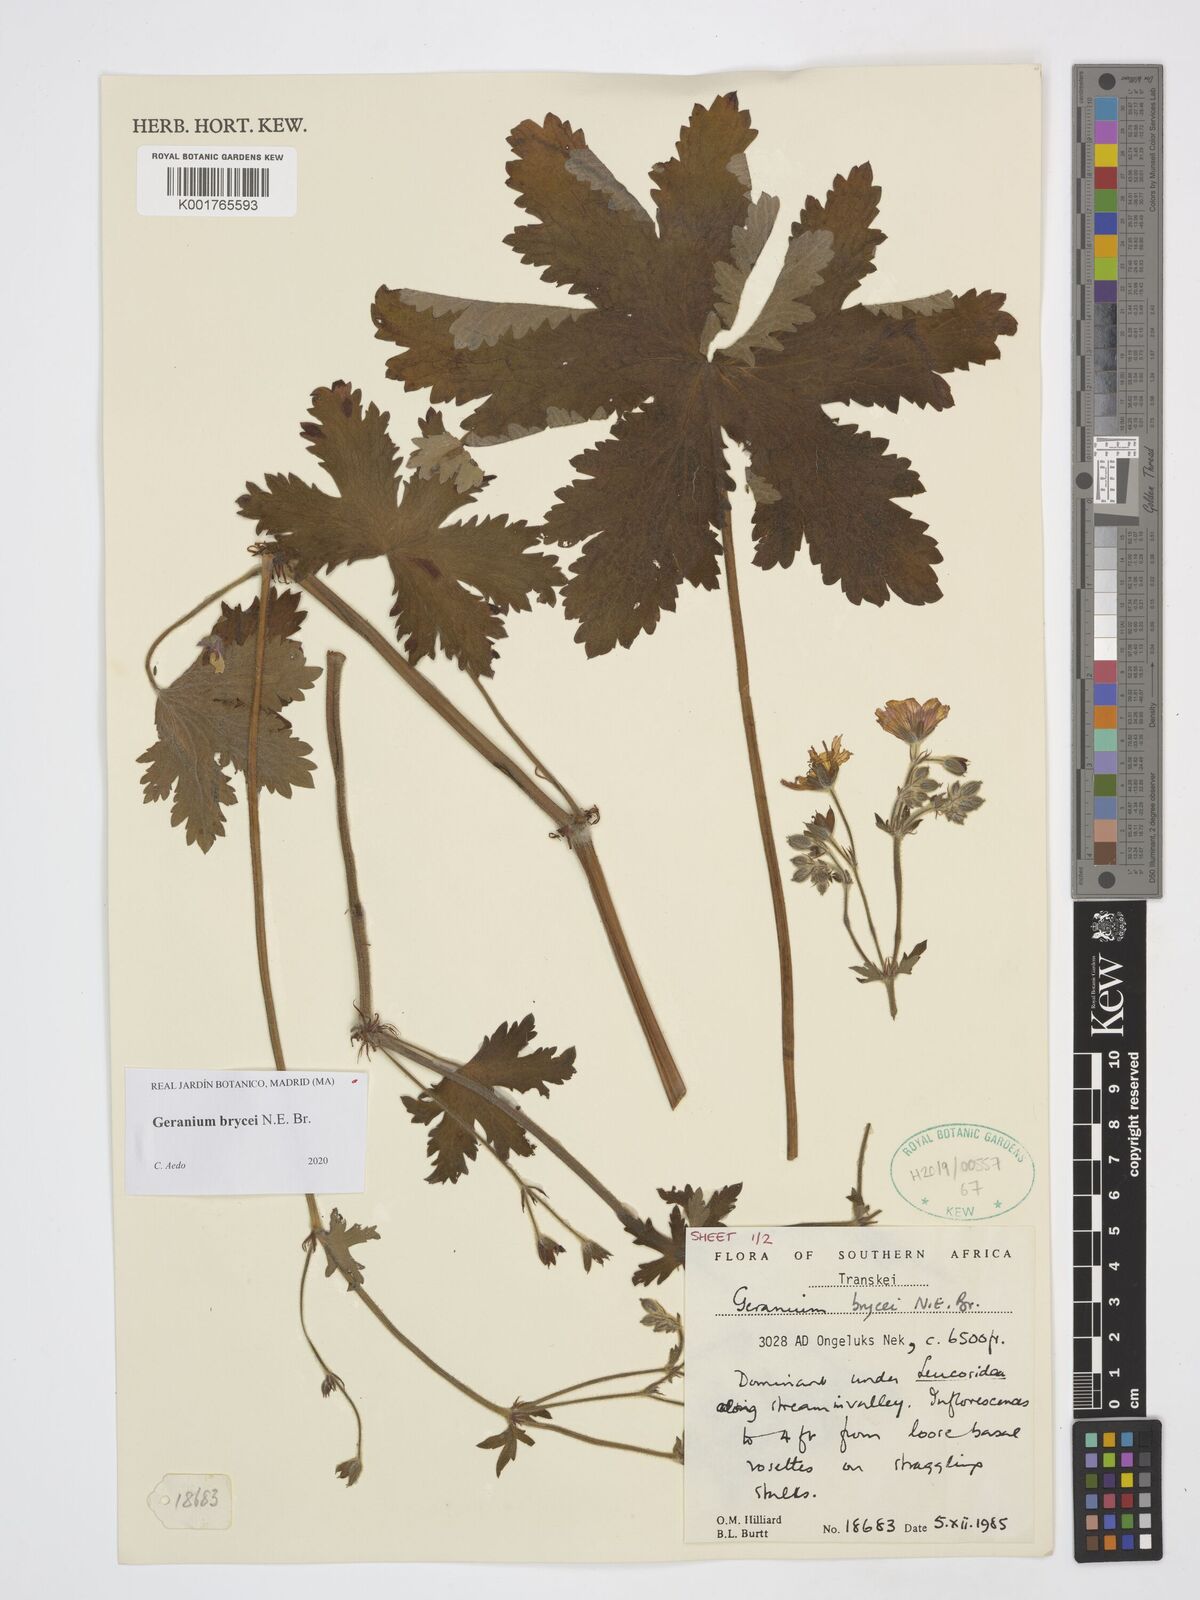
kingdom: Plantae
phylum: Tracheophyta
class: Magnoliopsida
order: Geraniales
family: Geraniaceae
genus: Geranium
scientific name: Geranium brycei
